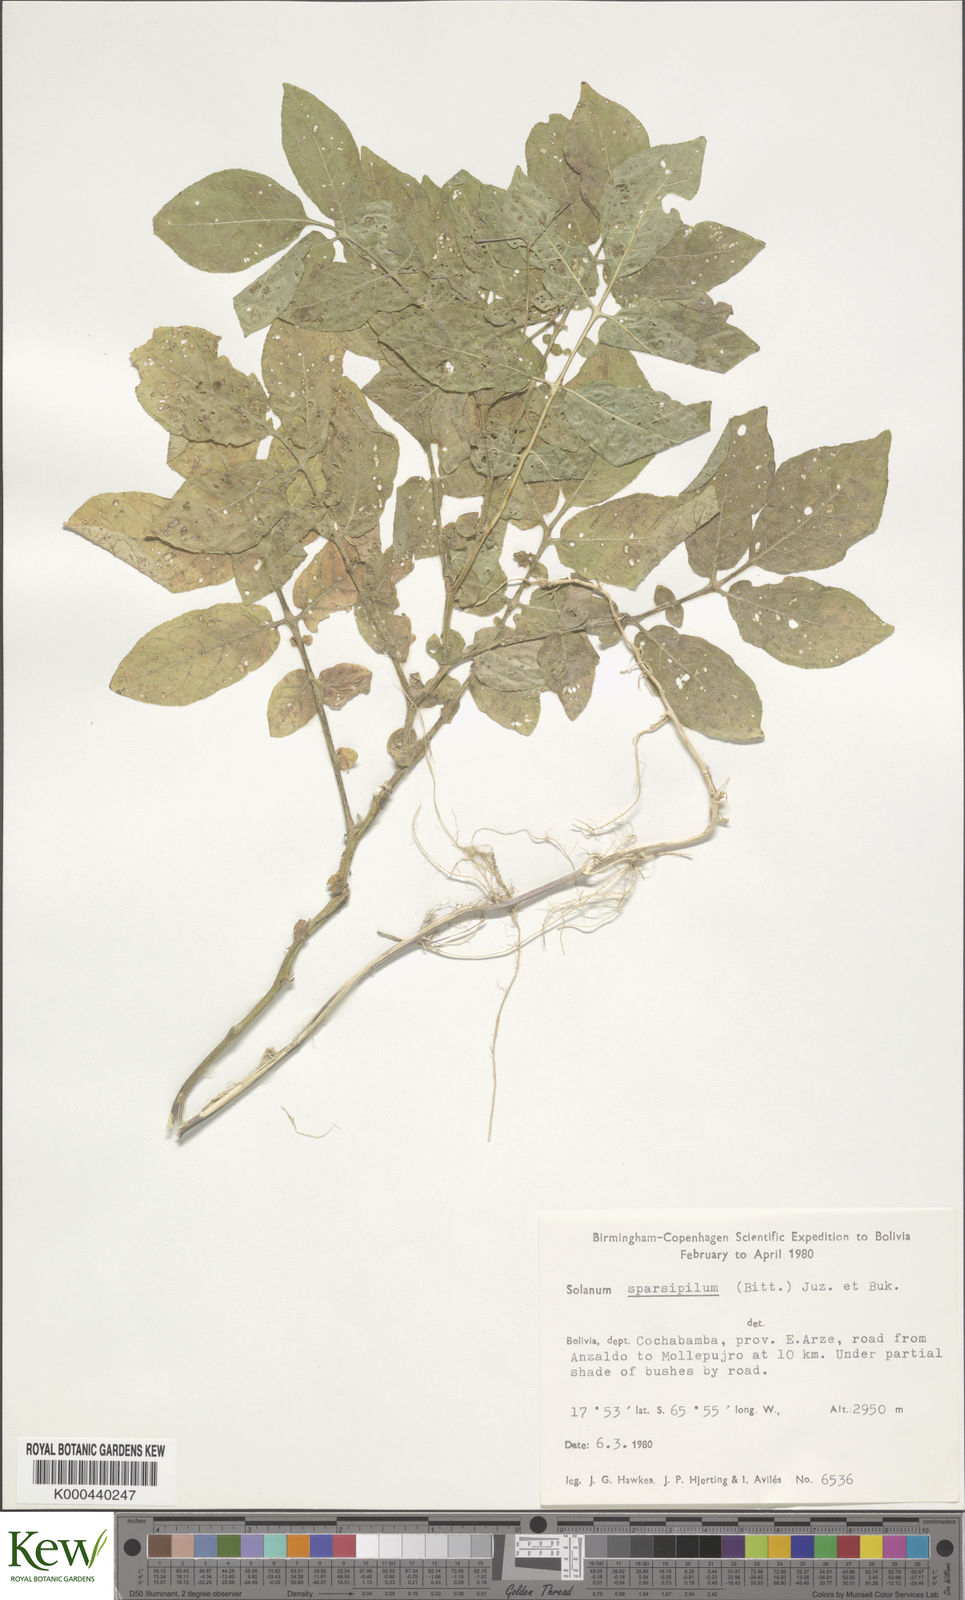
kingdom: Plantae
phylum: Tracheophyta
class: Magnoliopsida
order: Solanales
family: Solanaceae
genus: Solanum
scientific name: Solanum brevicaule
